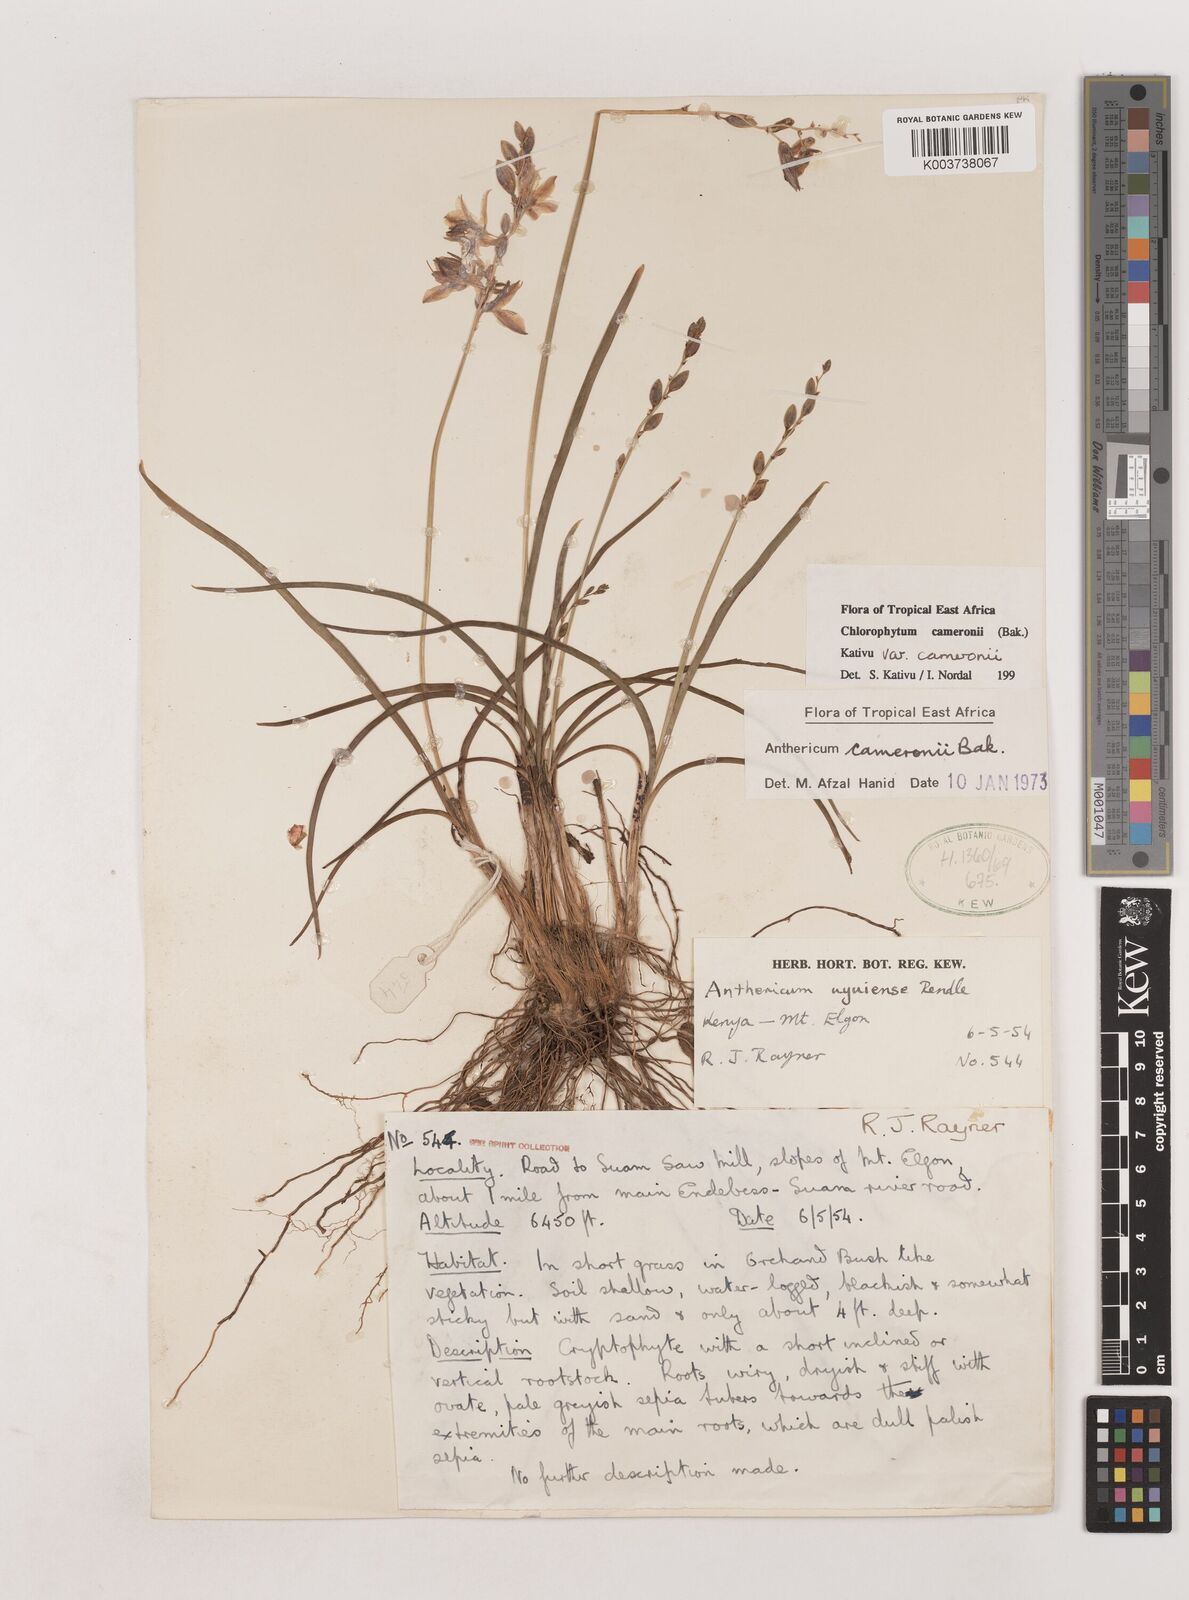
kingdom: Plantae
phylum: Tracheophyta
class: Liliopsida
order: Asparagales
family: Asparagaceae
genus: Chlorophytum
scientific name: Chlorophytum cameronii
